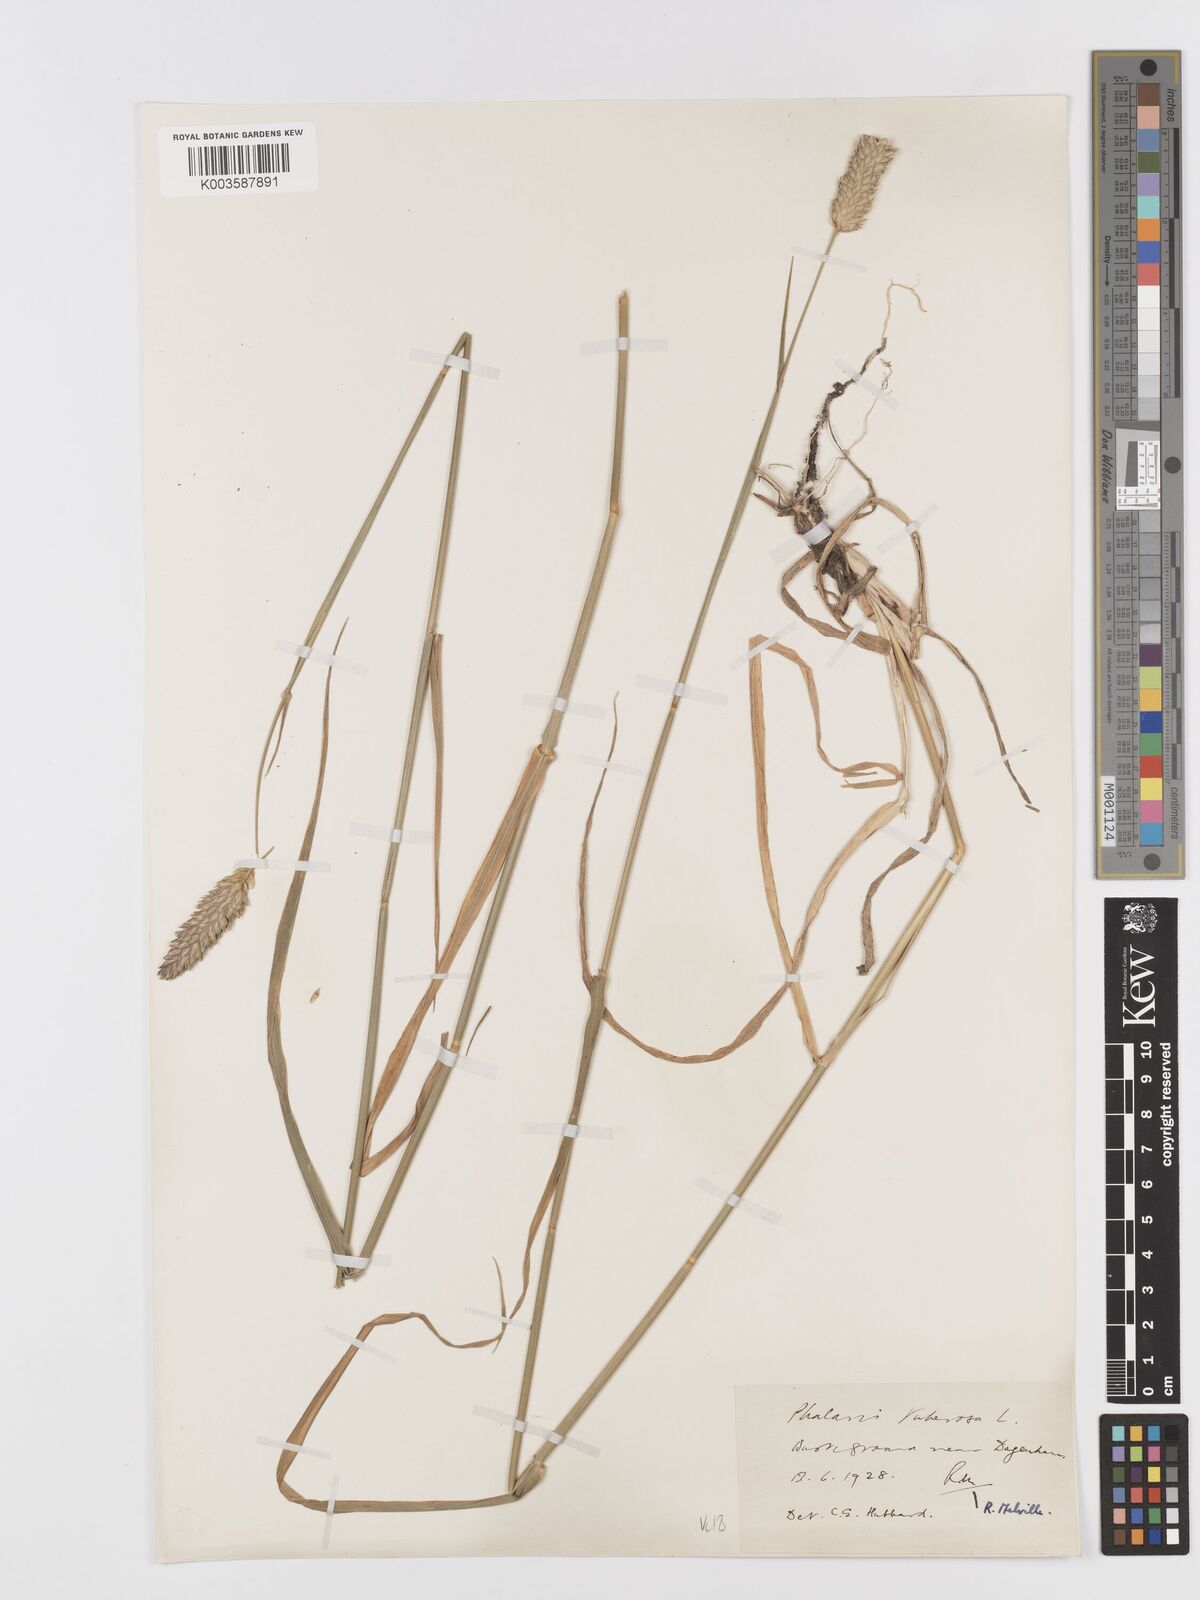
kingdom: Plantae
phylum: Tracheophyta
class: Liliopsida
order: Poales
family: Poaceae
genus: Phalaris
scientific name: Phalaris
